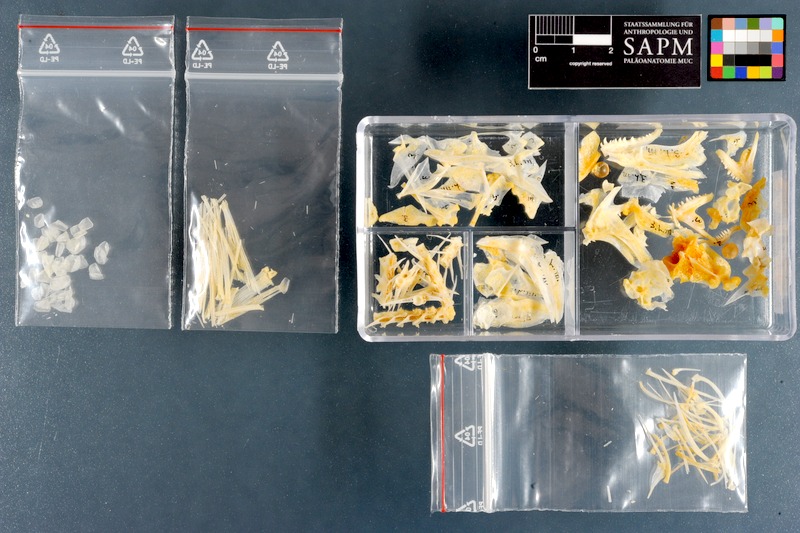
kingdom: Animalia
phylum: Chordata
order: Perciformes
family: Lethrinidae
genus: Lethrinus
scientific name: Lethrinus miniatus
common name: Trumpet emperor
